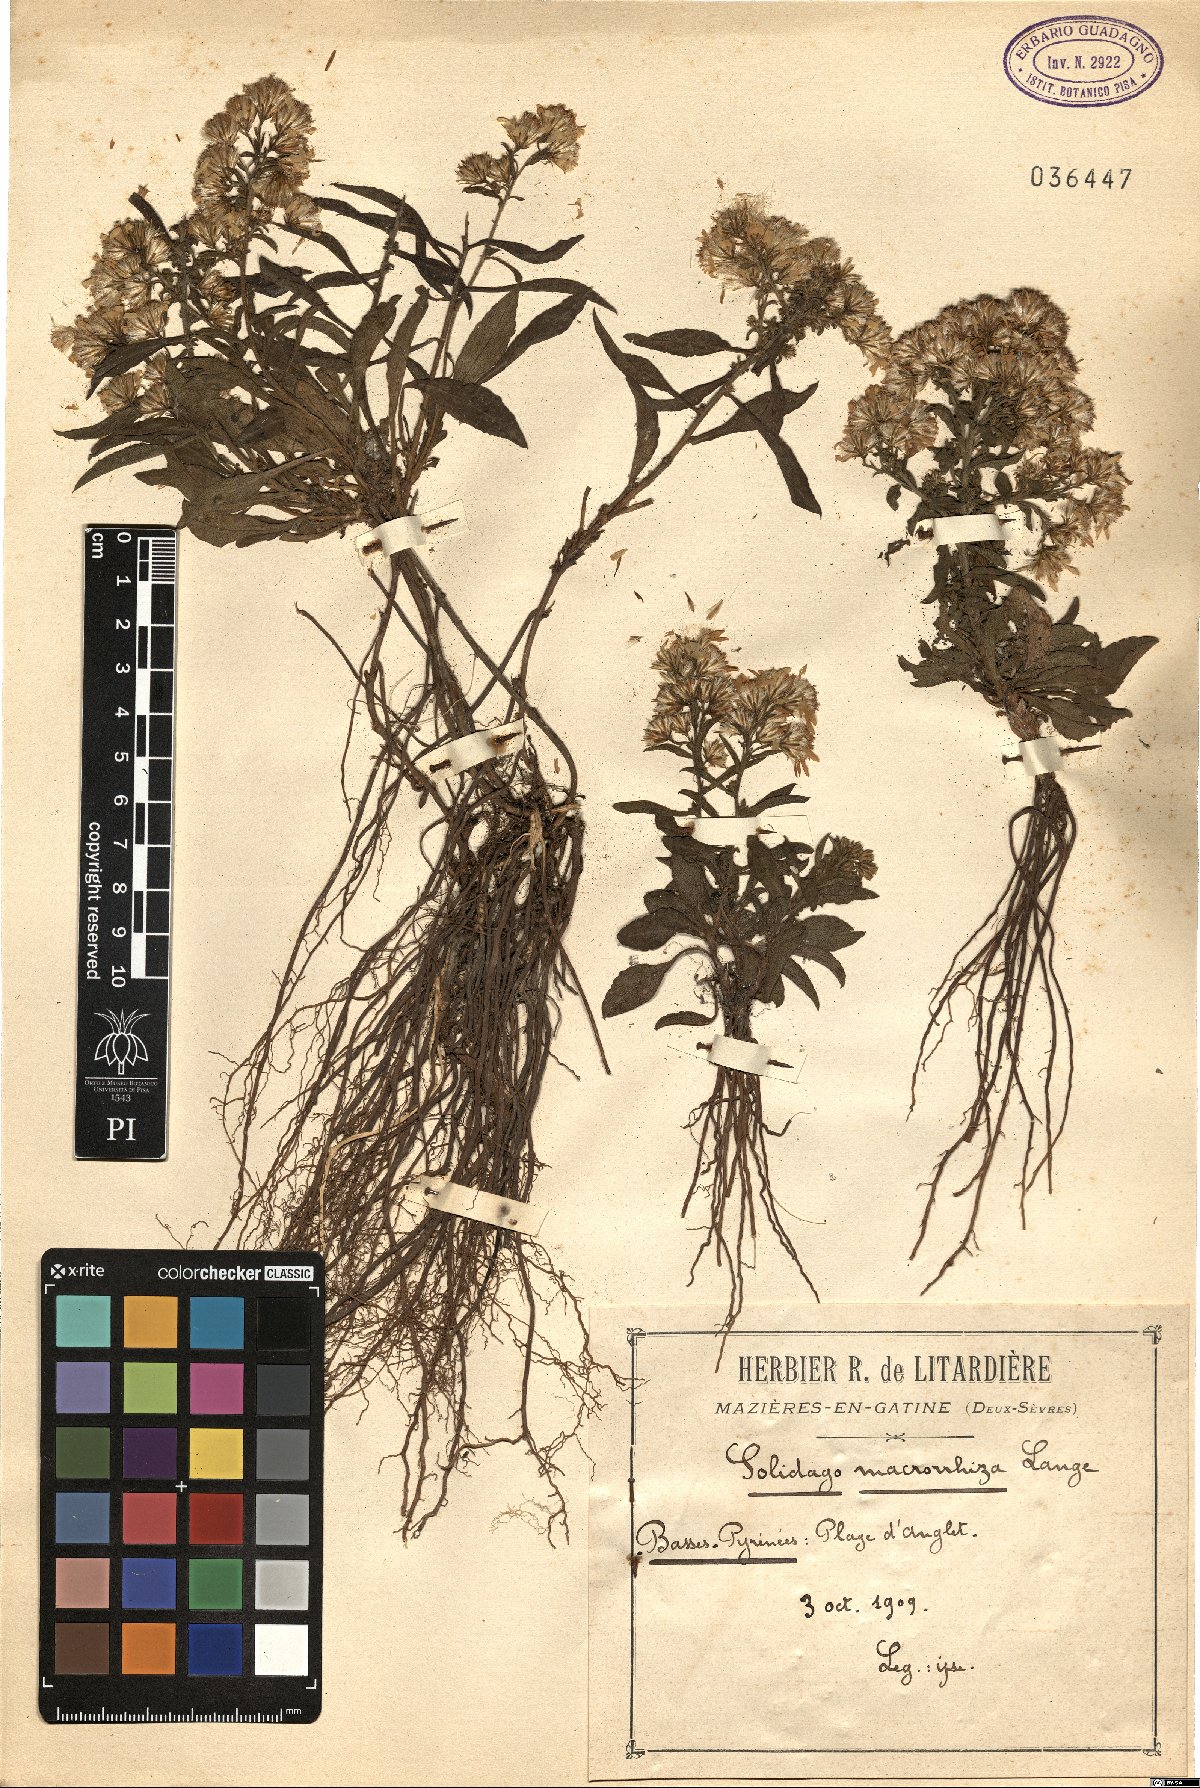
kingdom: Plantae
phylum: Tracheophyta
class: Magnoliopsida
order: Asterales
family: Asteraceae
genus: Solidago
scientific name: Solidago virgaurea
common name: Goldenrod
